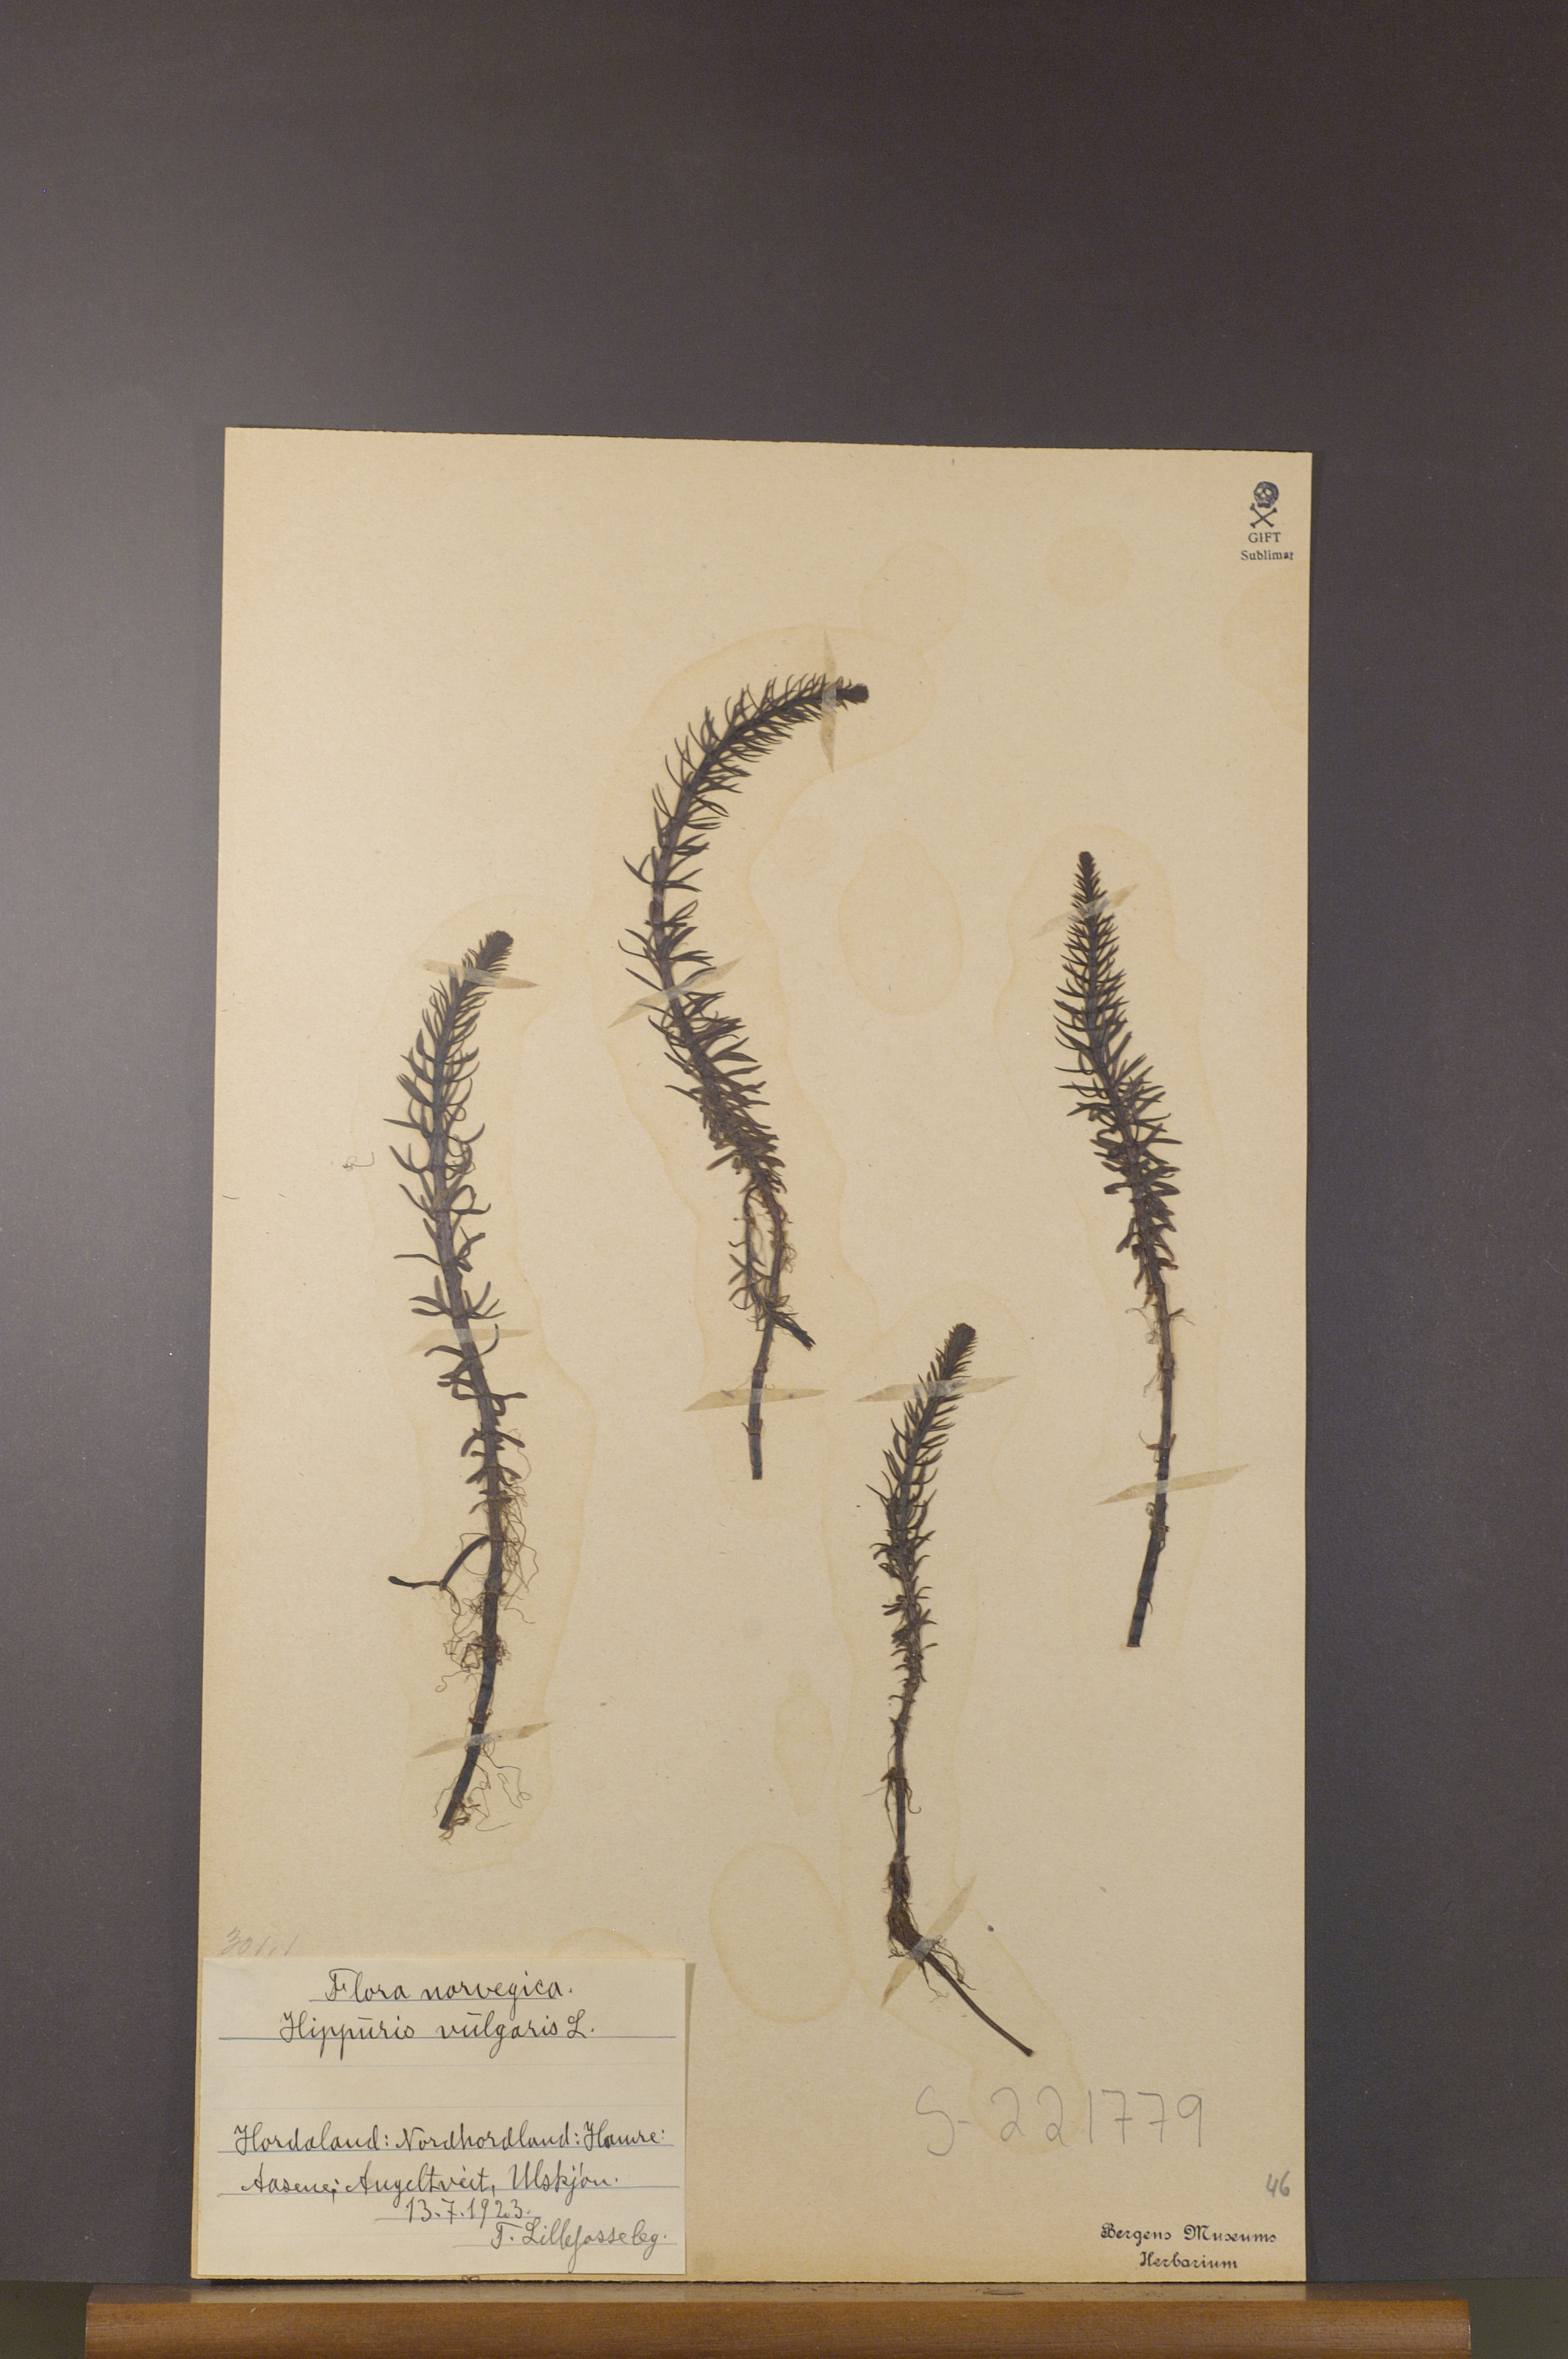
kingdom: Plantae
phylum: Tracheophyta
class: Magnoliopsida
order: Lamiales
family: Plantaginaceae
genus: Hippuris
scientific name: Hippuris vulgaris
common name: Mare's-tail
